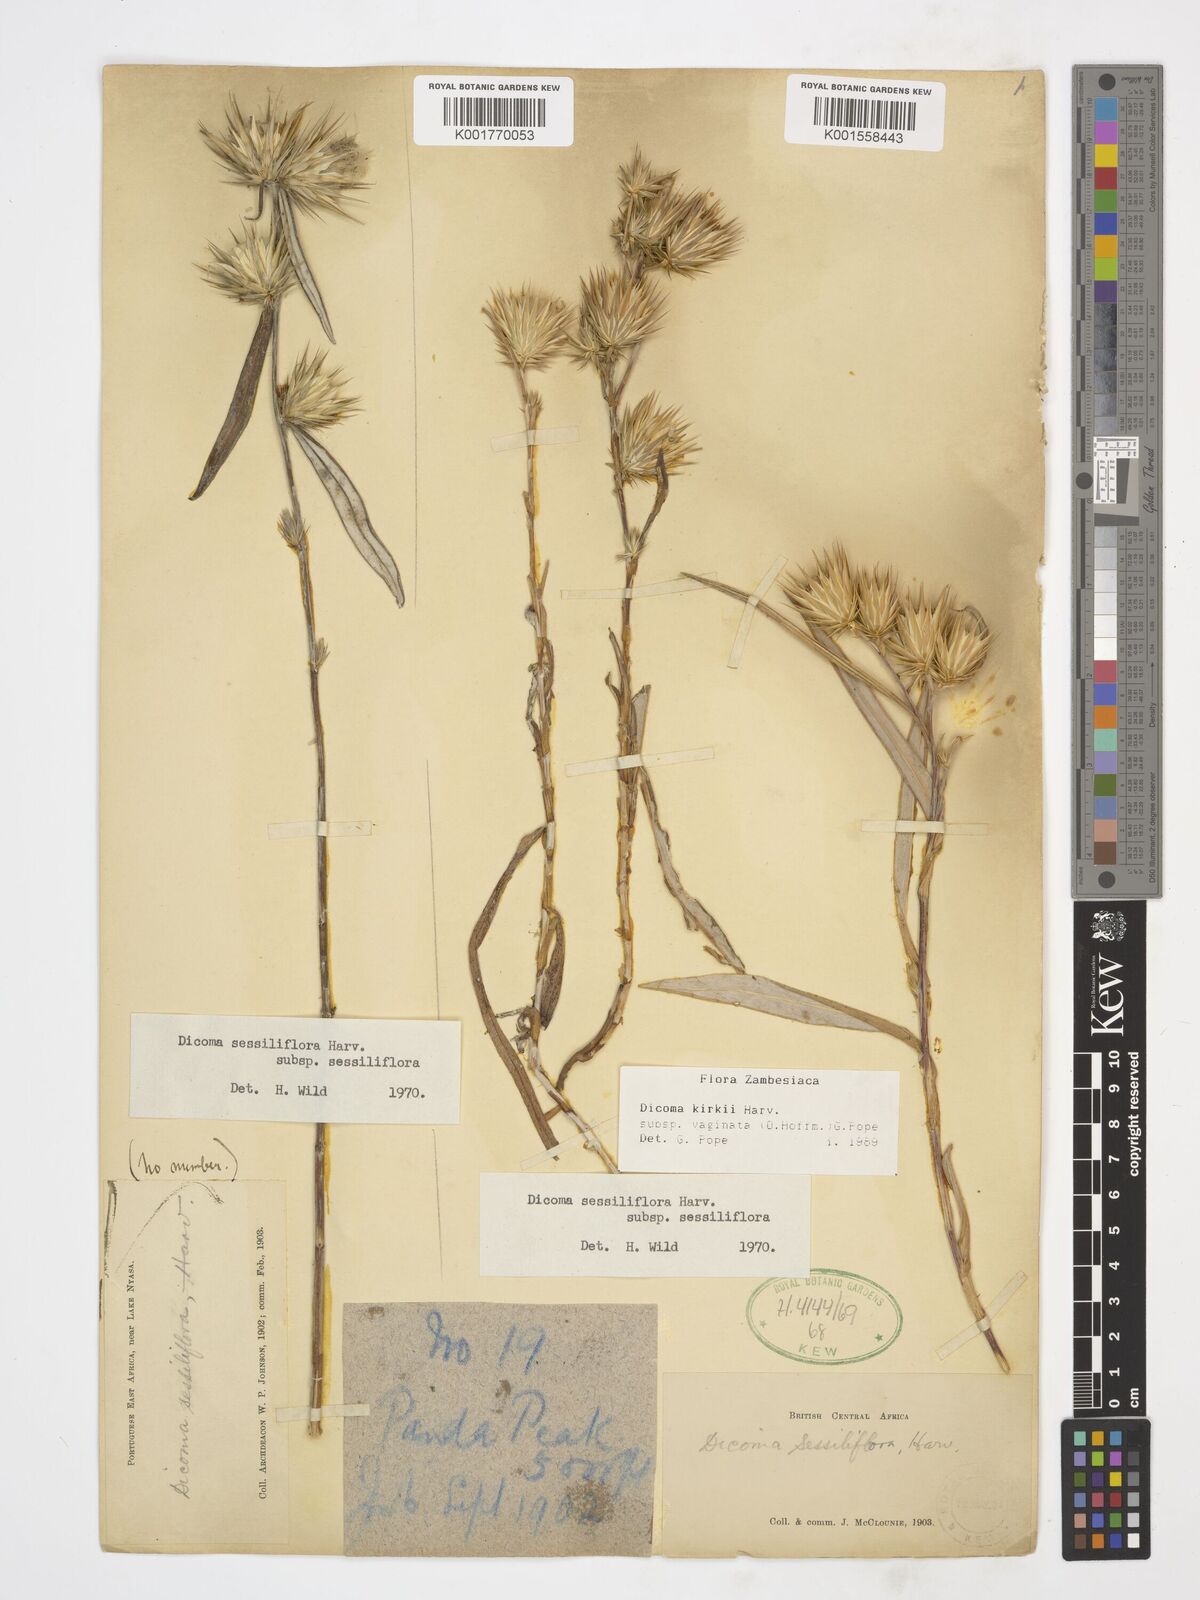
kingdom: Plantae
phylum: Tracheophyta
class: Magnoliopsida
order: Asterales
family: Asteraceae
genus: Macledium
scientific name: Macledium kirkii
